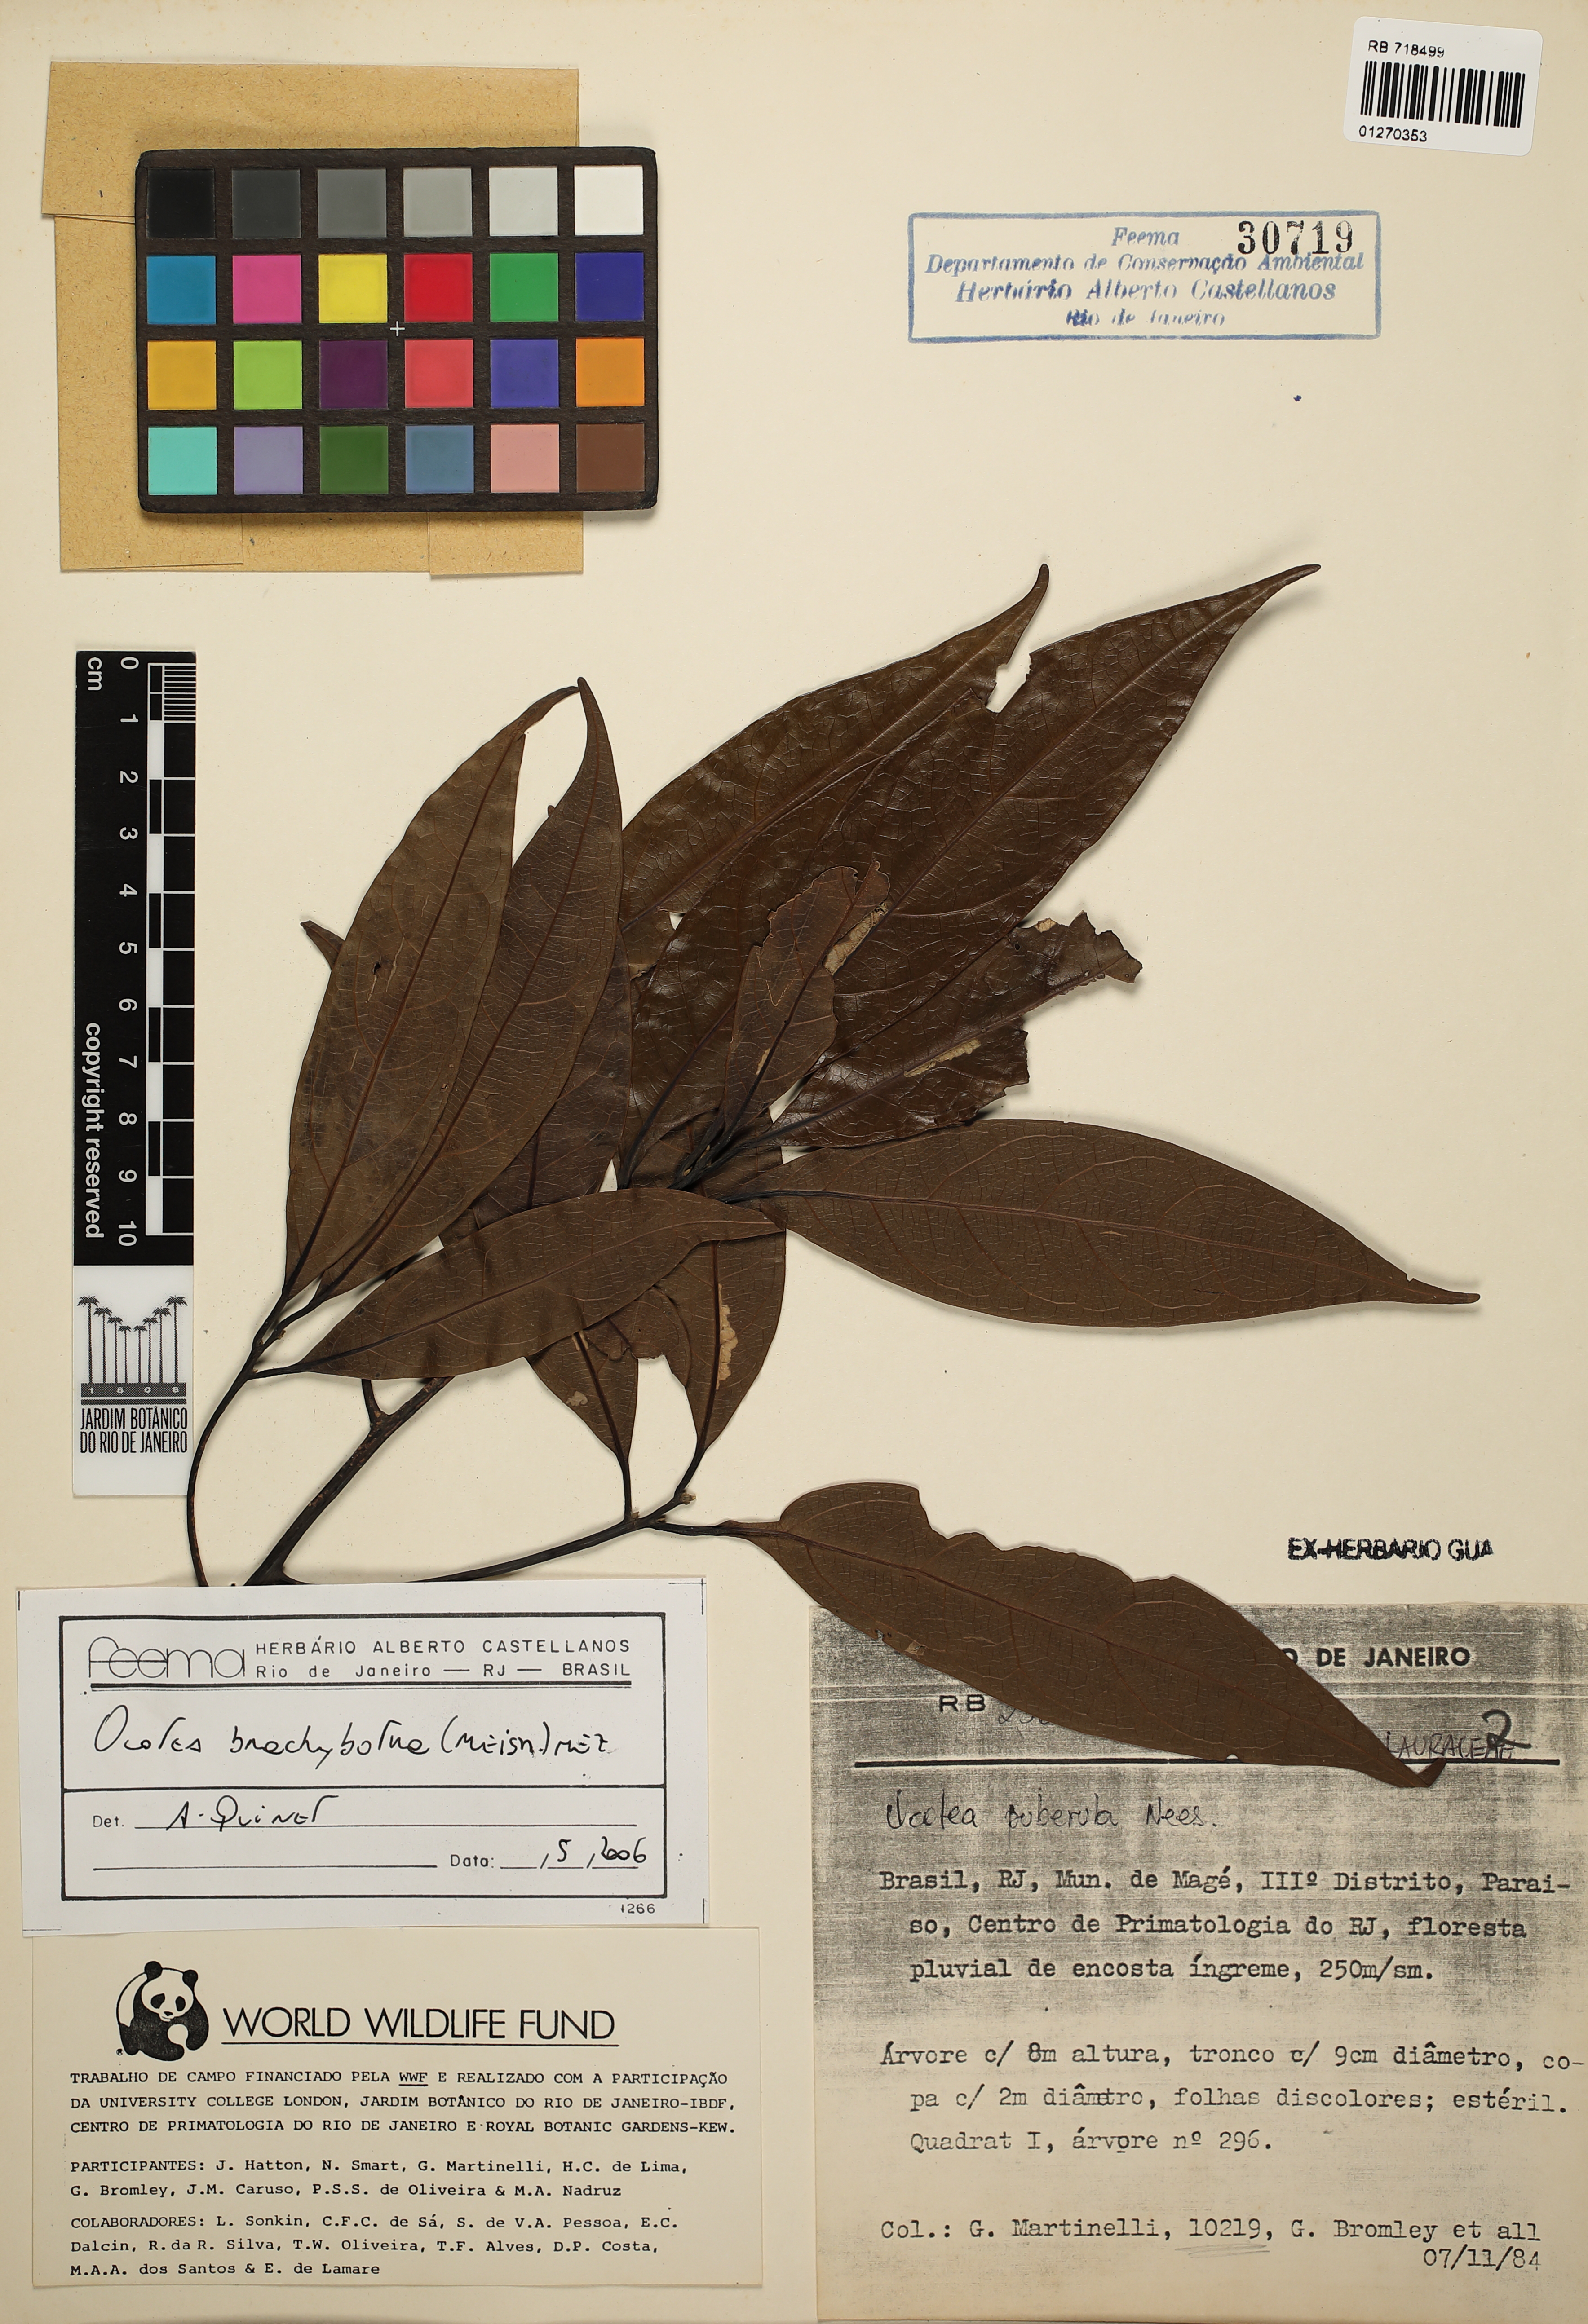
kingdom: Plantae
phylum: Tracheophyta
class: Magnoliopsida
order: Laurales
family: Lauraceae
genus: Ocotea
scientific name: Ocotea brachybotra
